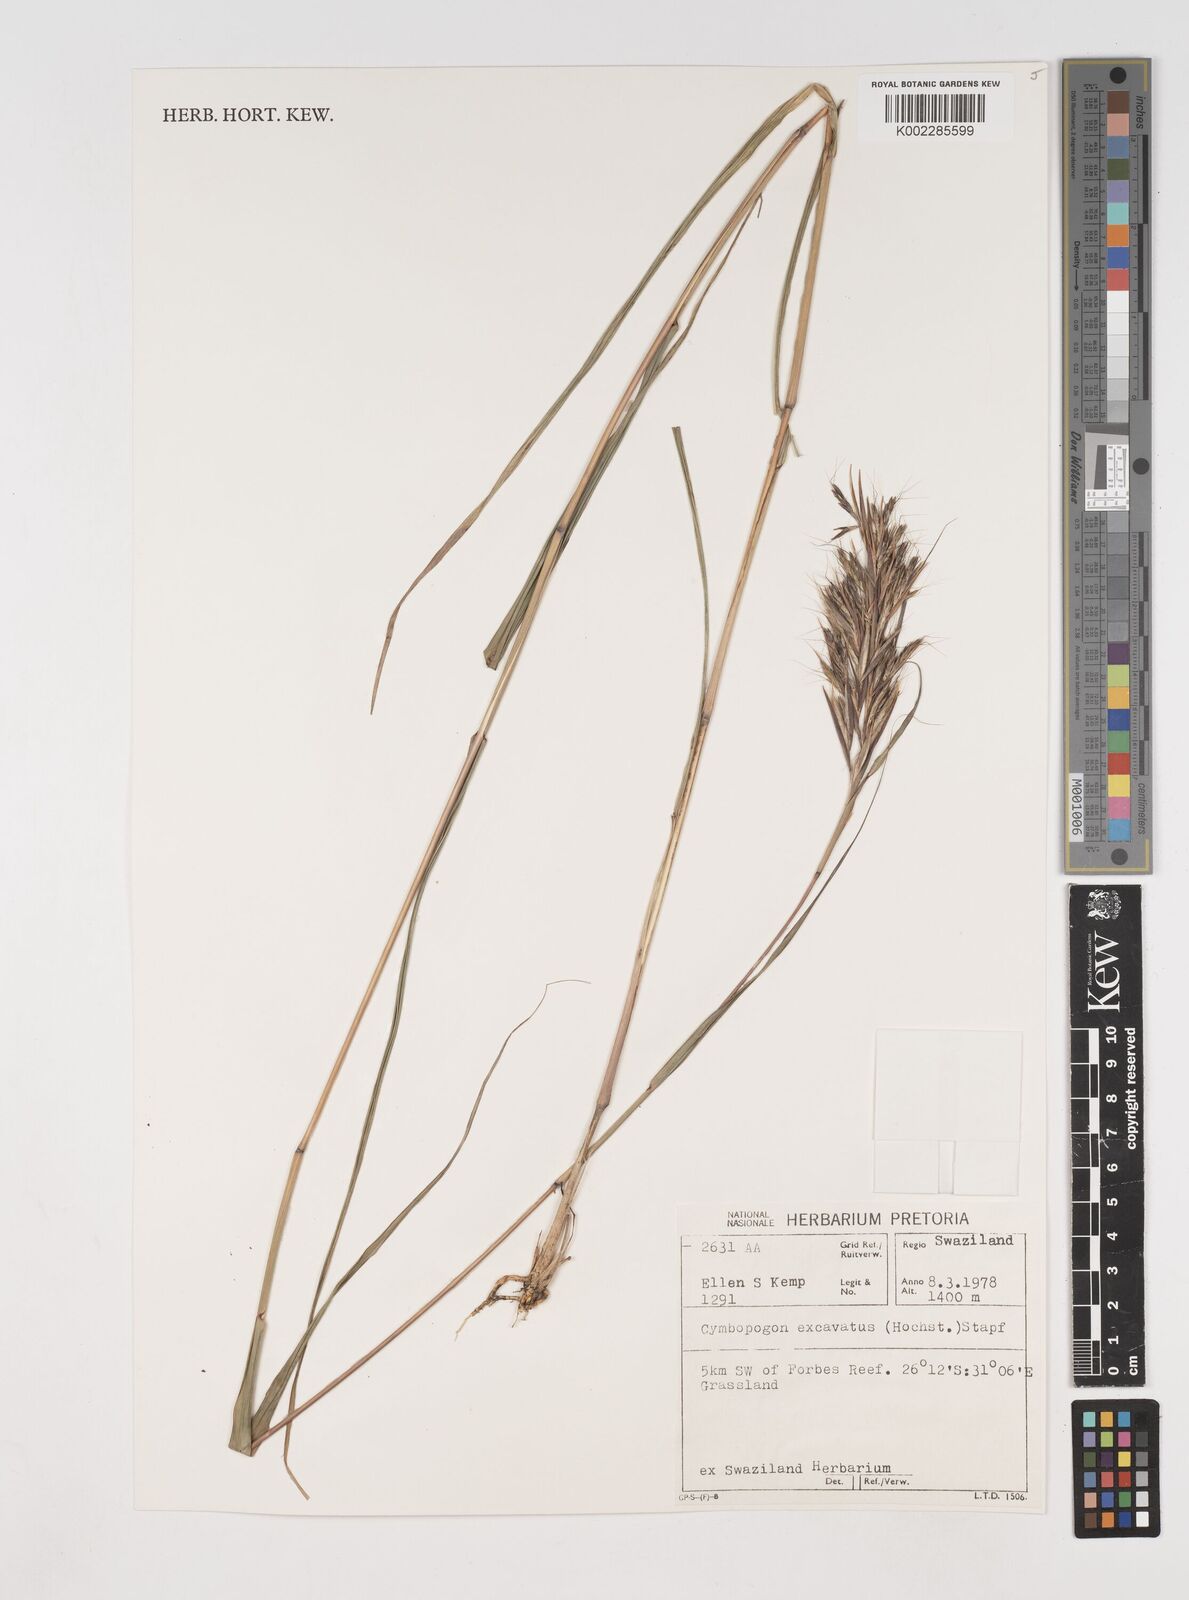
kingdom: Plantae
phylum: Tracheophyta
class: Liliopsida
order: Poales
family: Poaceae
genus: Cymbopogon
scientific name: Cymbopogon caesius
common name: Kachi grass
